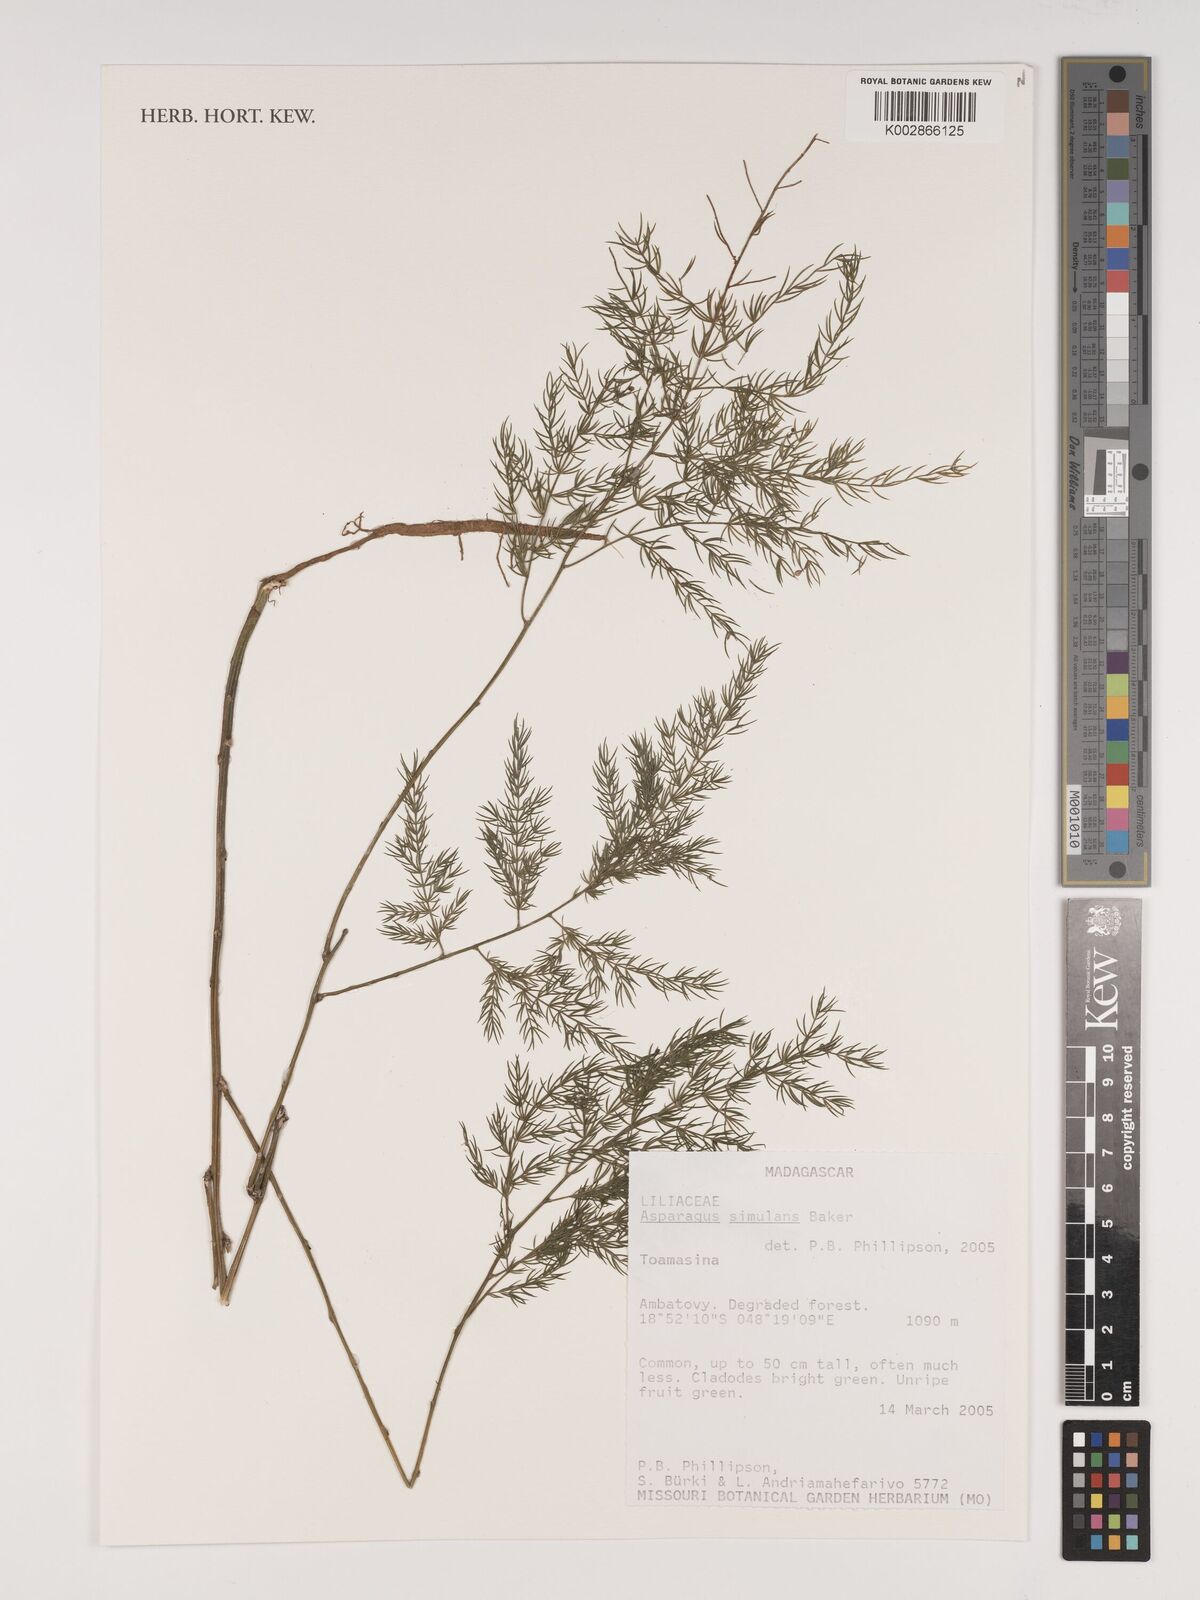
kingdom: Plantae
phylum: Tracheophyta
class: Liliopsida
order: Asparagales
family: Asparagaceae
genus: Asparagus
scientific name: Asparagus simulans
